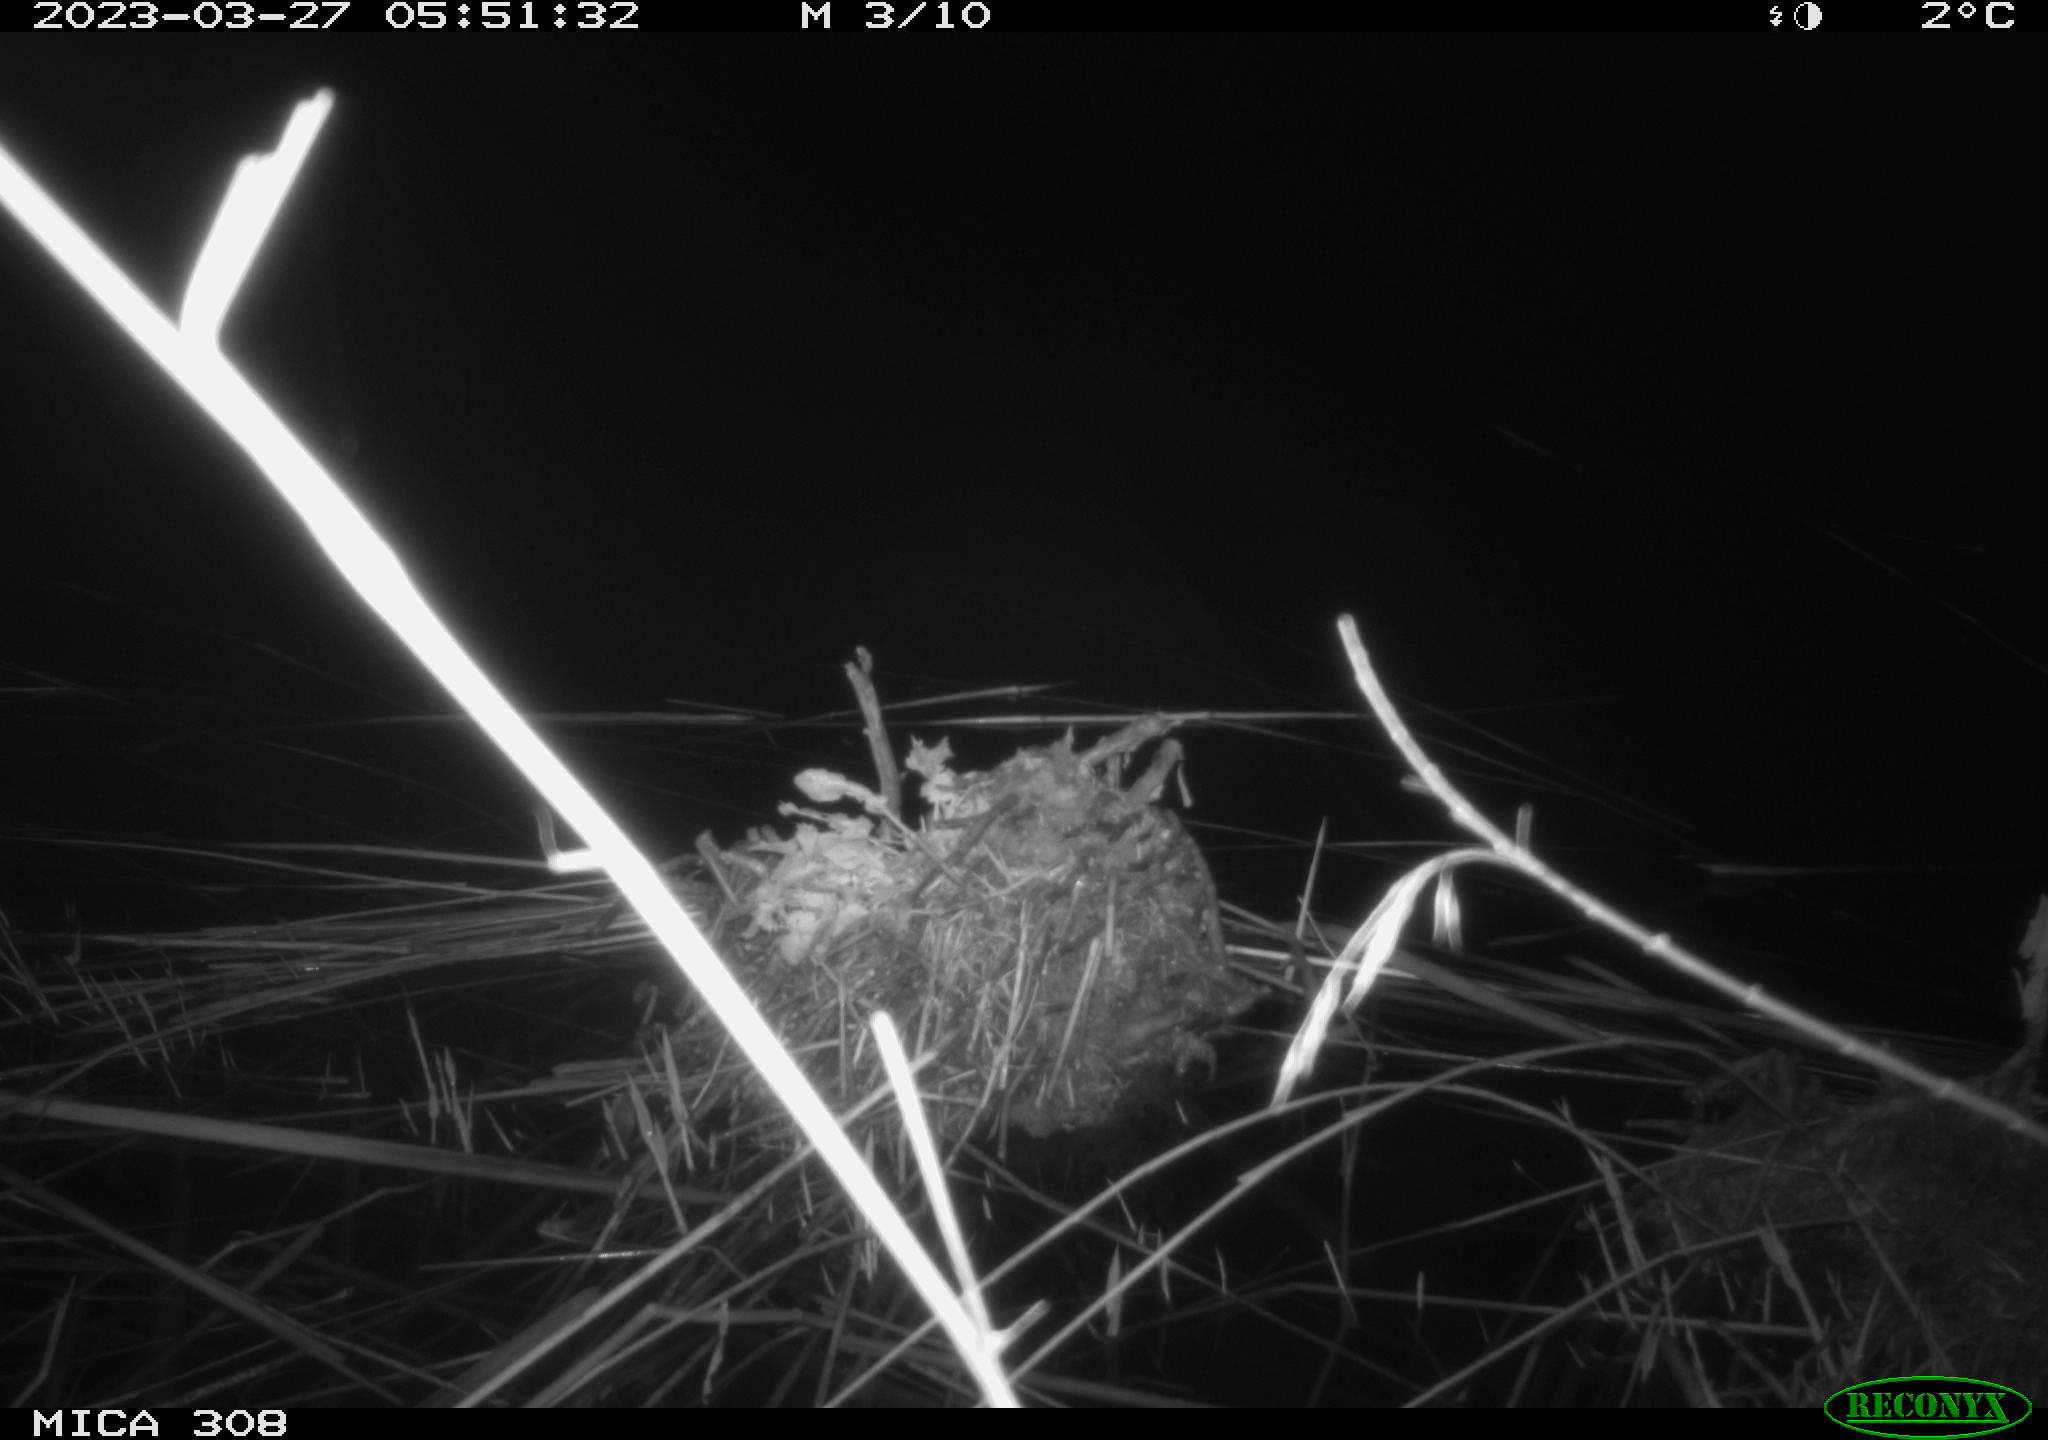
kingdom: Animalia
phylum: Chordata
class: Aves
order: Anseriformes
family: Anatidae
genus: Anas
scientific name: Anas
